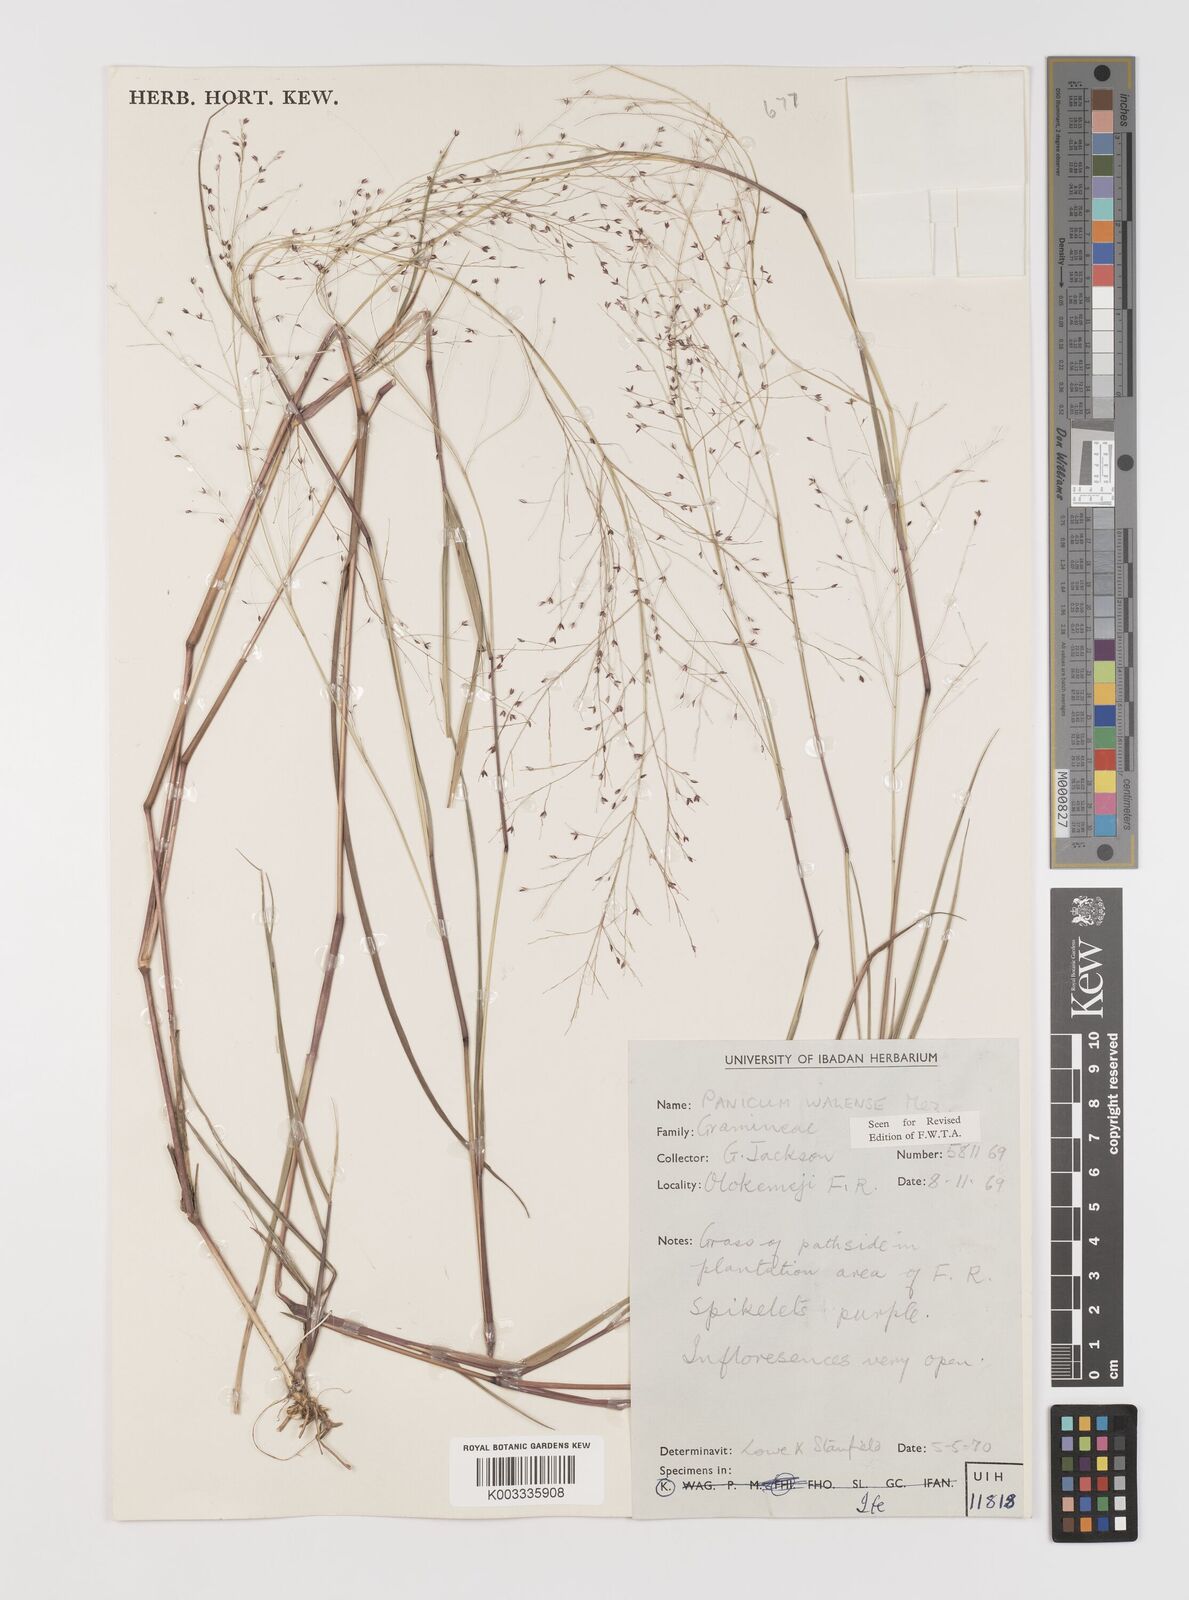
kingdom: Plantae
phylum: Tracheophyta
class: Liliopsida
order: Poales
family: Poaceae
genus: Panicum
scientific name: Panicum humile
